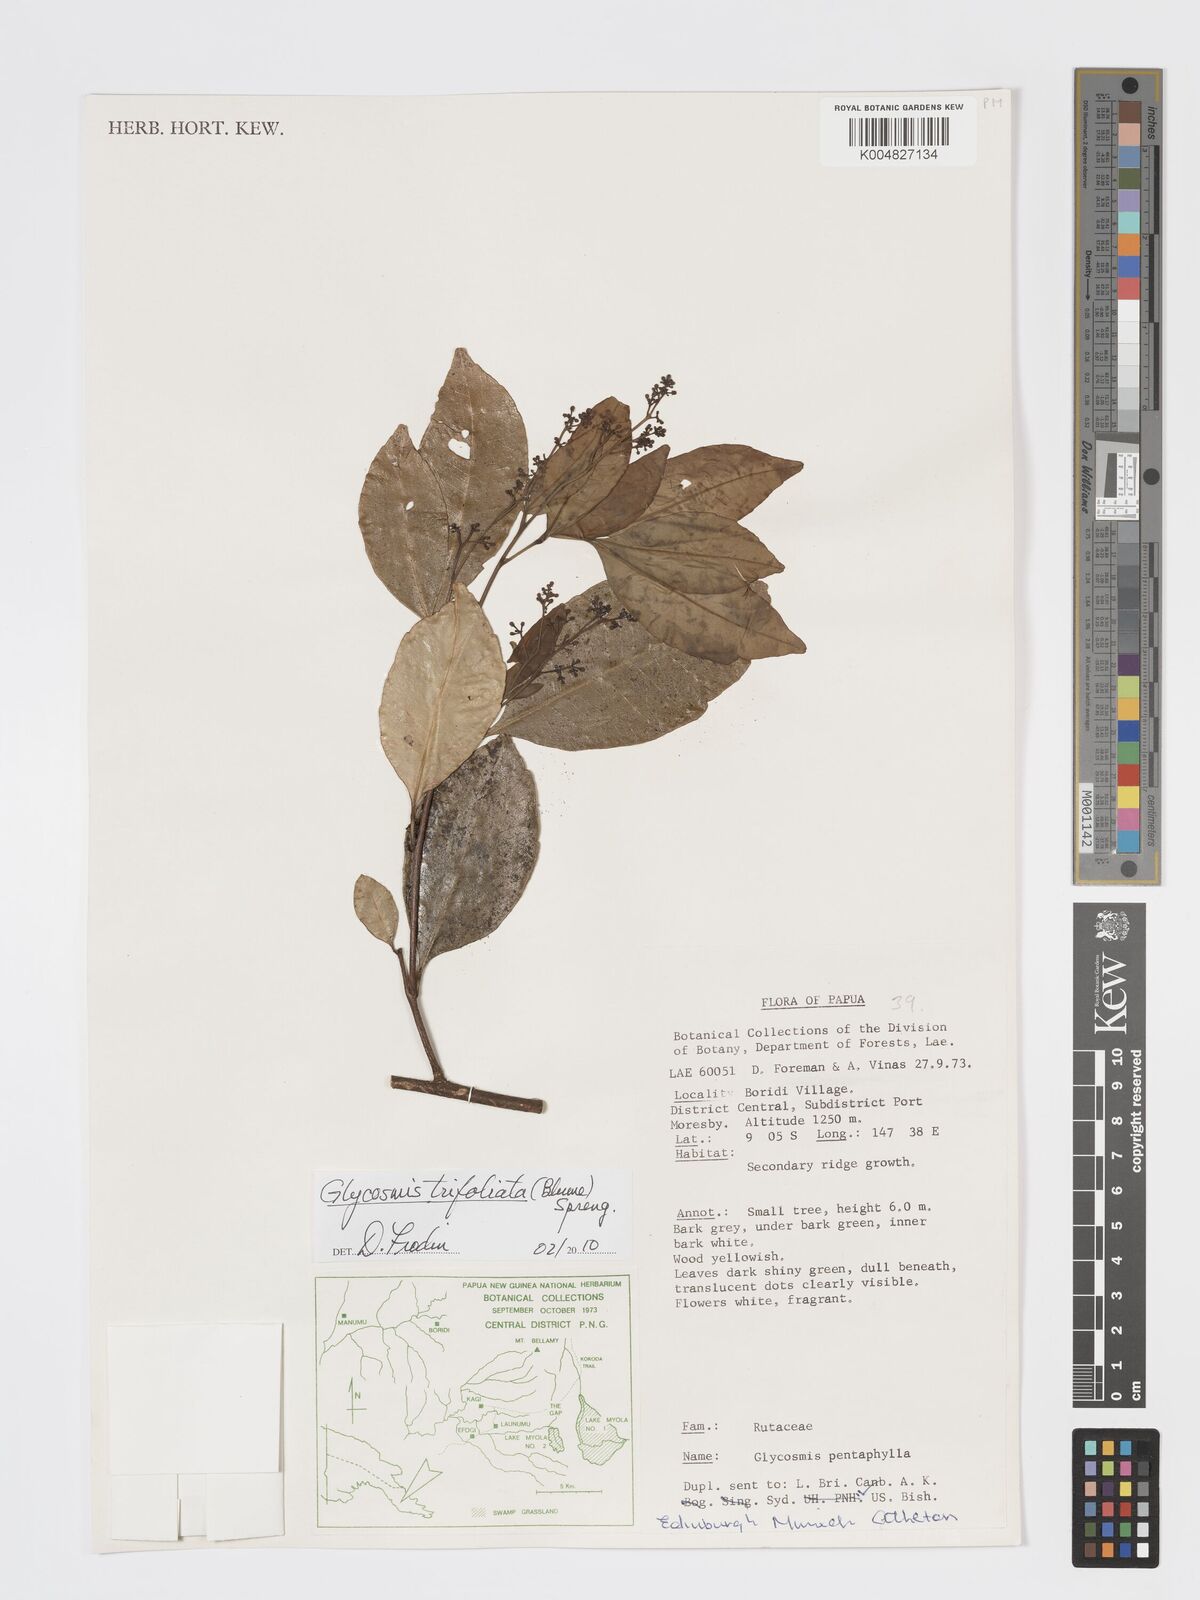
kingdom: Plantae
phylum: Tracheophyta
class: Magnoliopsida
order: Sapindales
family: Rutaceae
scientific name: Rutaceae
